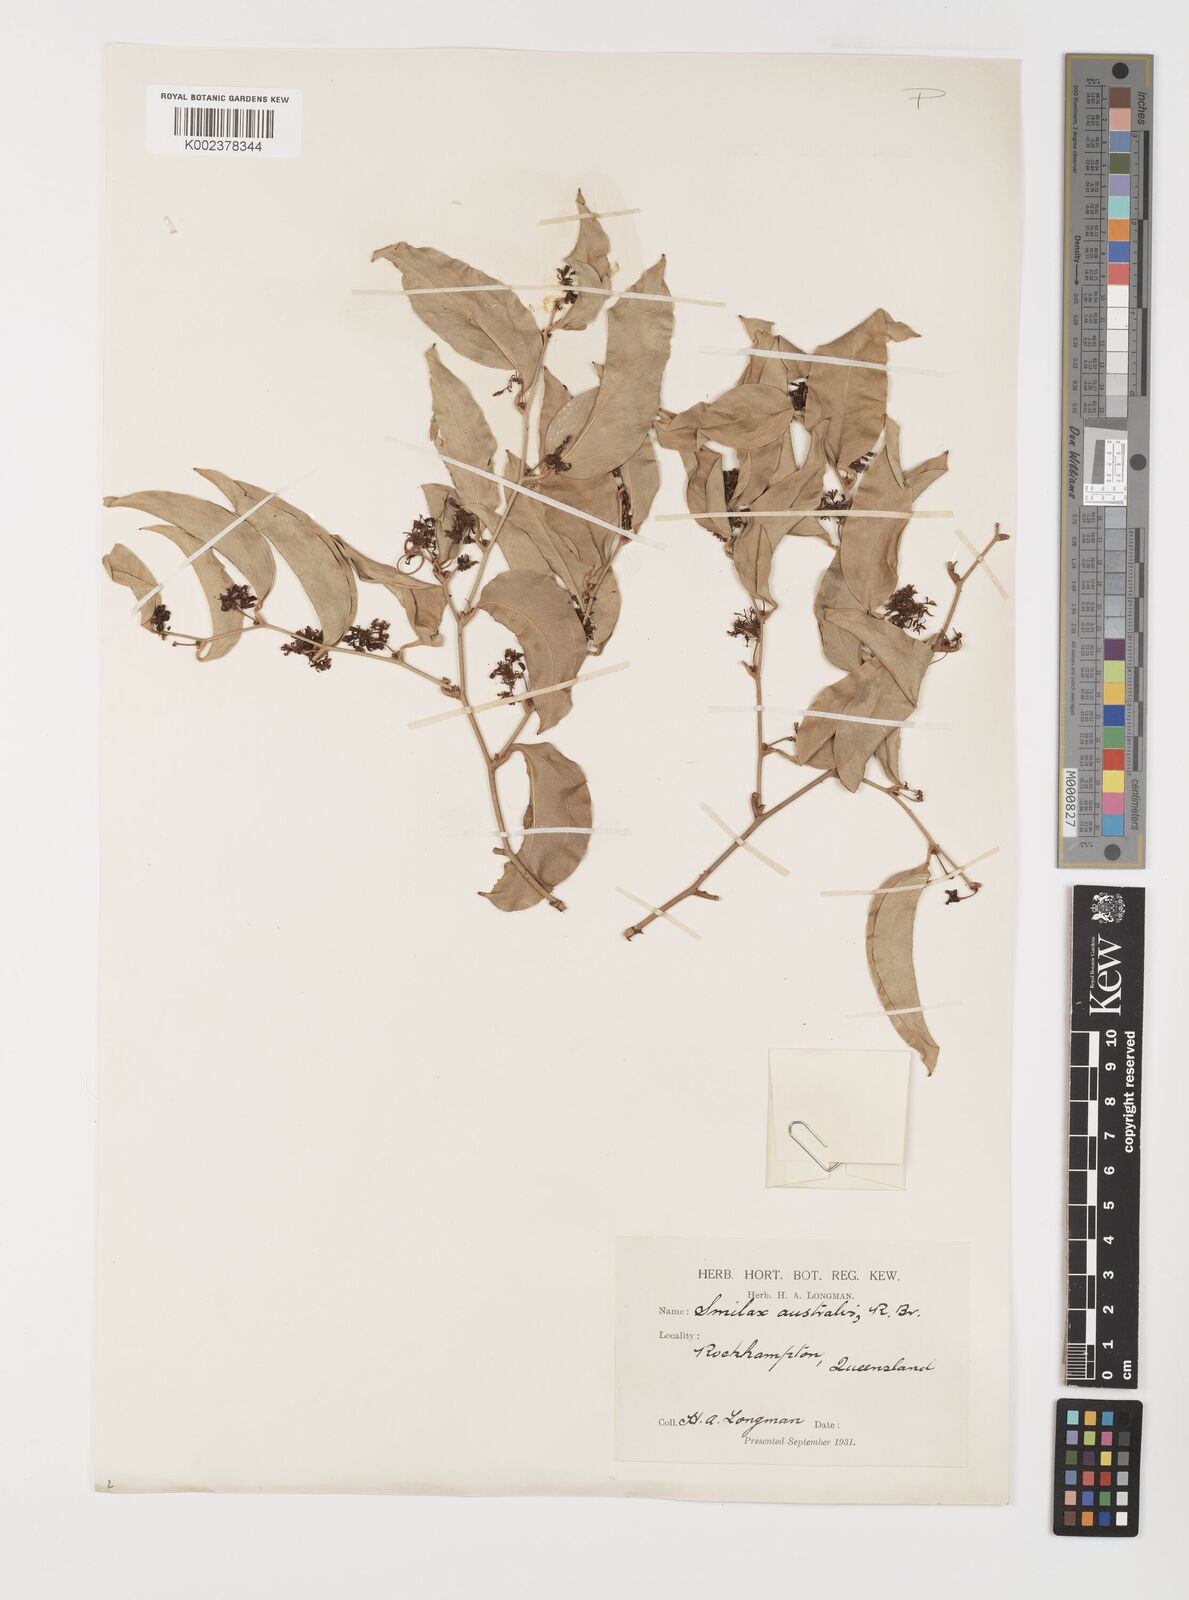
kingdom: Plantae
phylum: Tracheophyta
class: Liliopsida
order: Liliales
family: Smilacaceae
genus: Smilax
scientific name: Smilax australis
